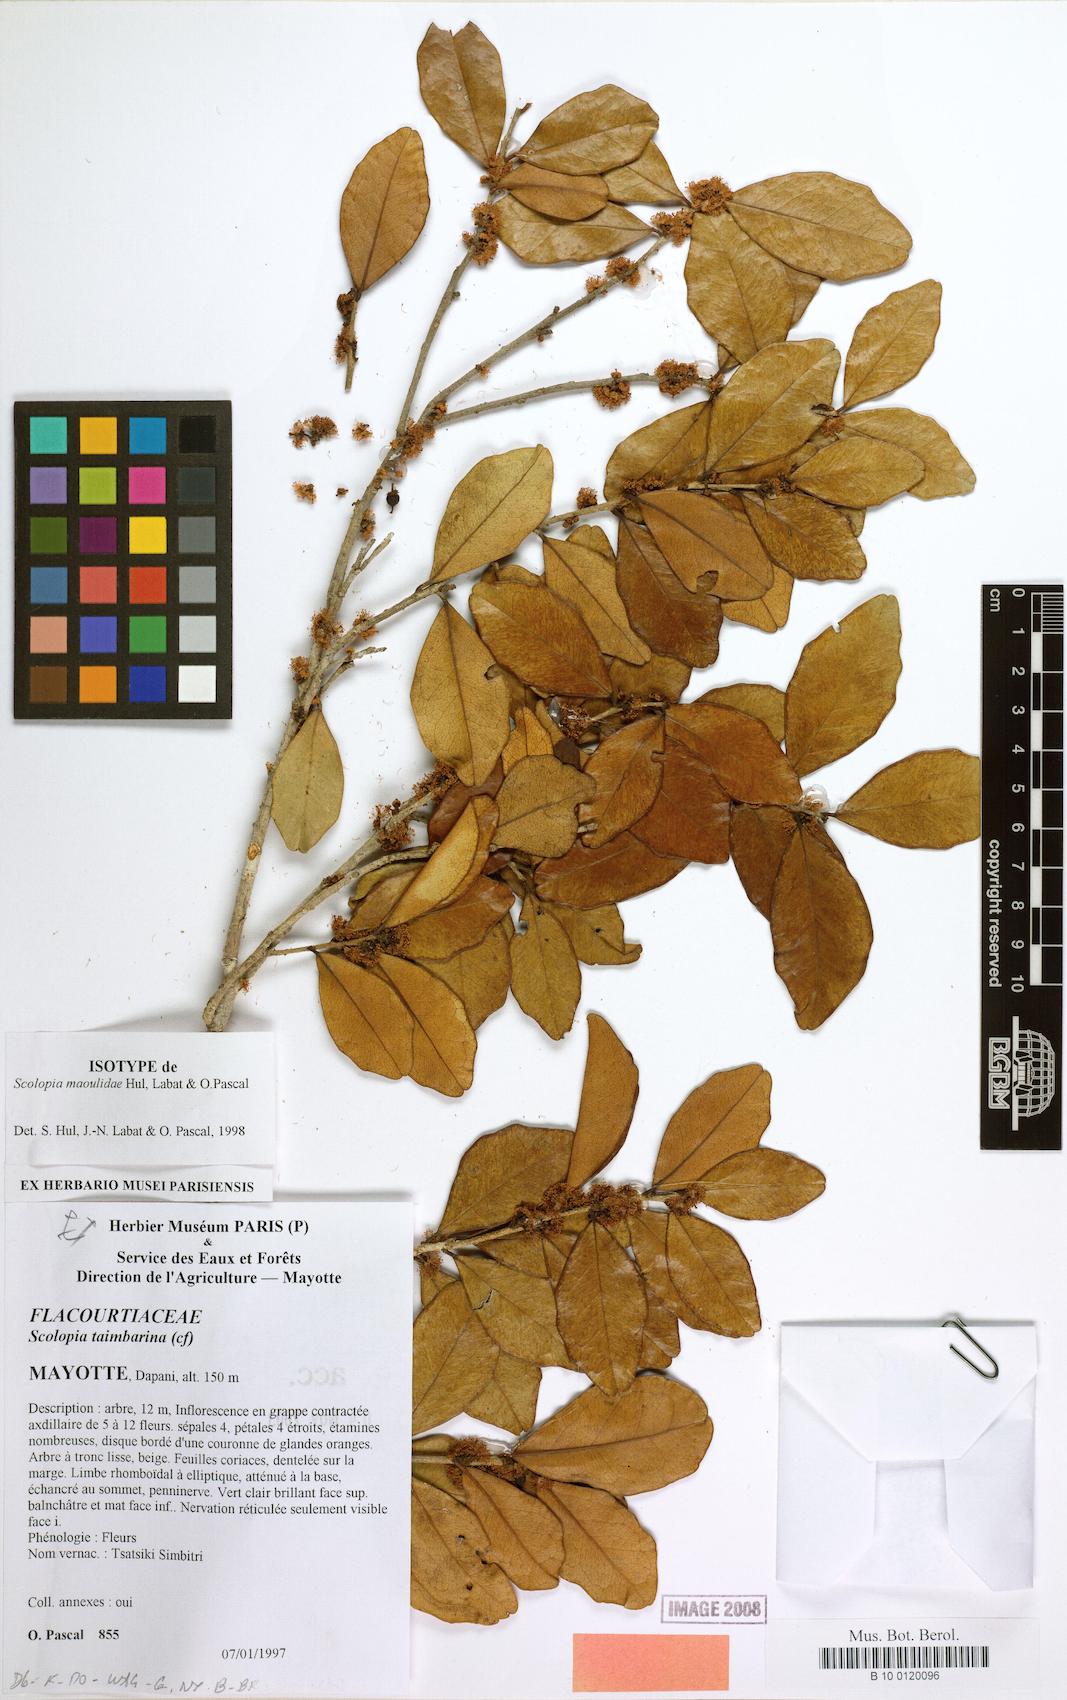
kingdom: Plantae
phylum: Tracheophyta
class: Magnoliopsida
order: Malpighiales
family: Salicaceae
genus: Scolopia
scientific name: Scolopia maoulidae
